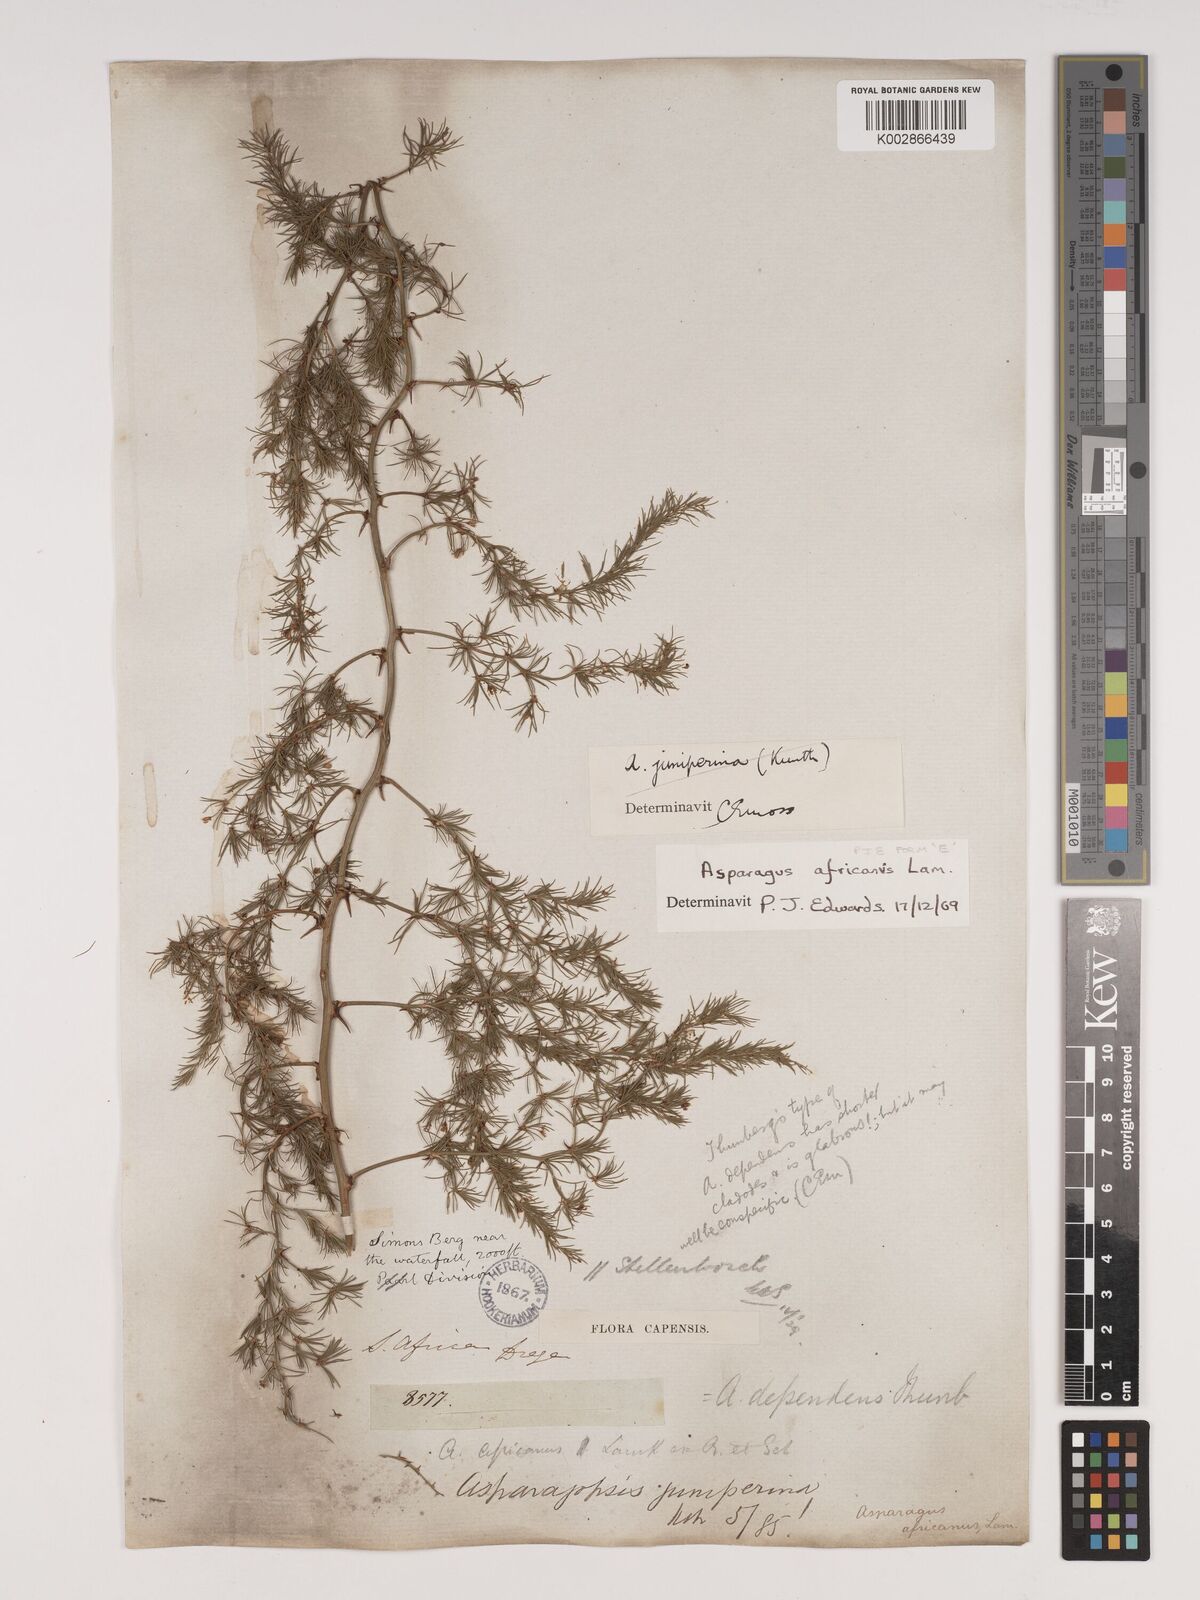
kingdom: Plantae
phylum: Tracheophyta
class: Liliopsida
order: Asparagales
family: Asparagaceae
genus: Asparagus
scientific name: Asparagus africanus
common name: Asparagus-fern
